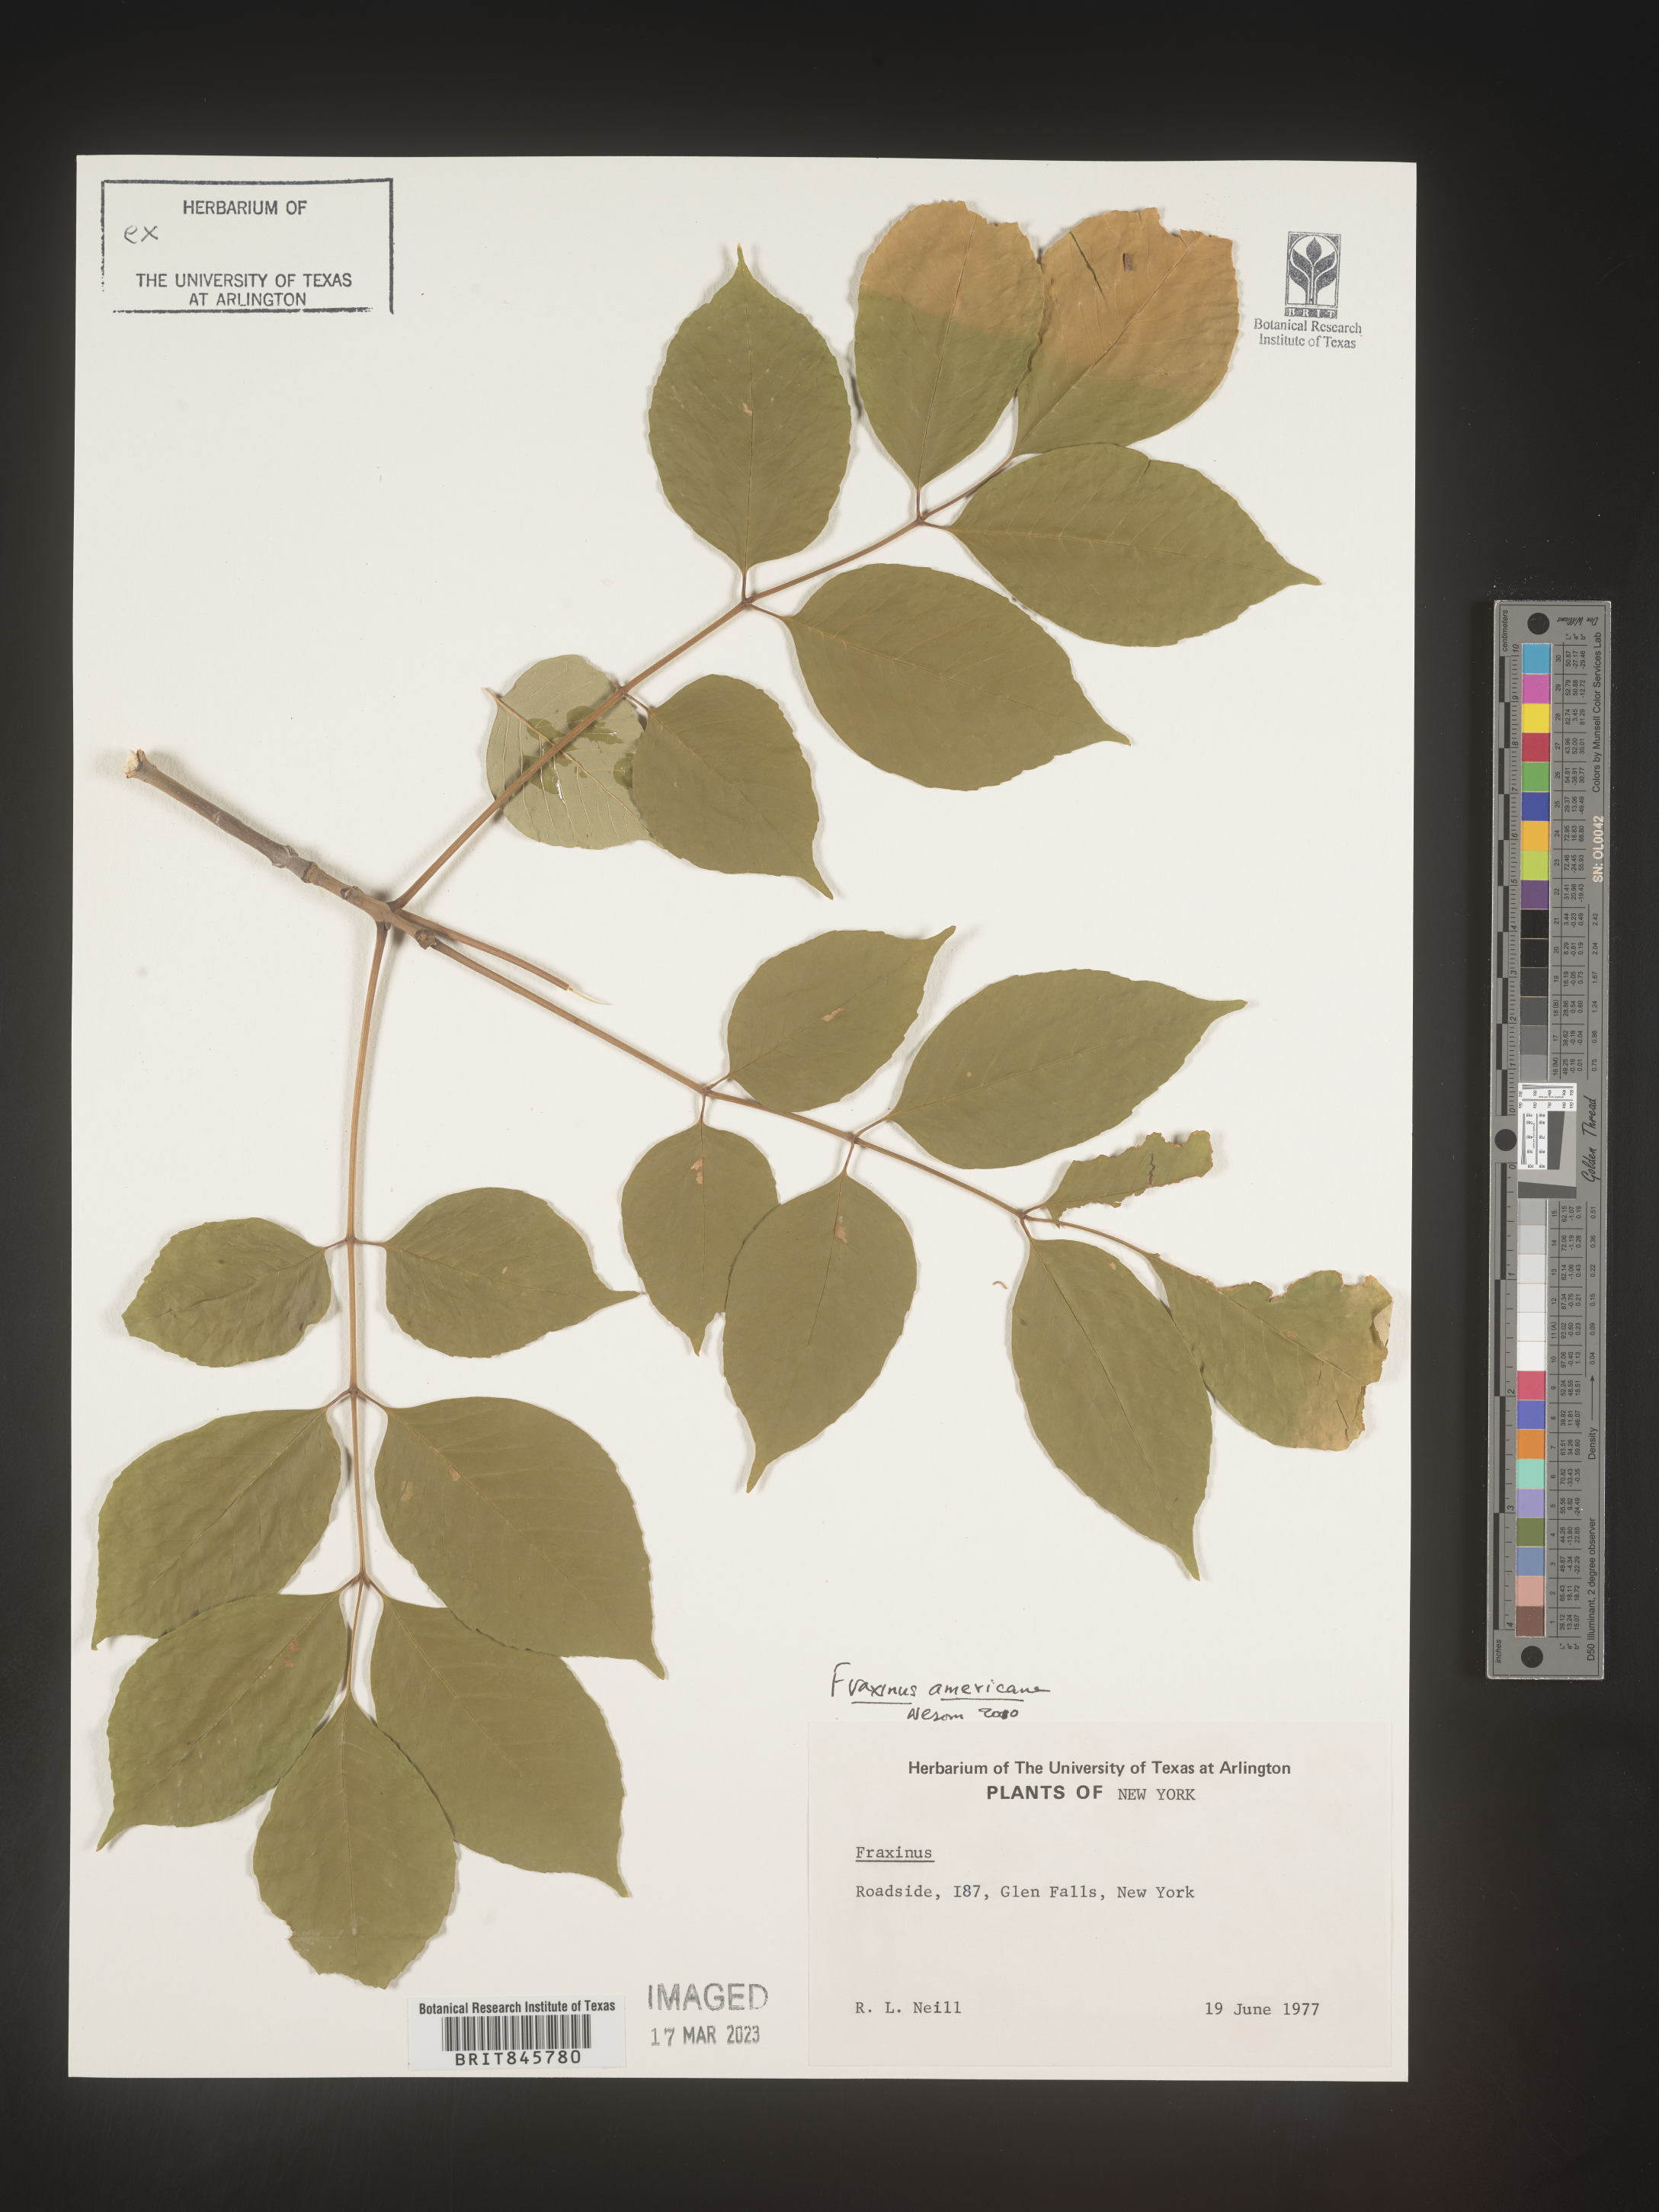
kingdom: Plantae
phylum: Tracheophyta
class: Magnoliopsida
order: Lamiales
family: Oleaceae
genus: Fraxinus
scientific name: Fraxinus americana
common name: White ash
